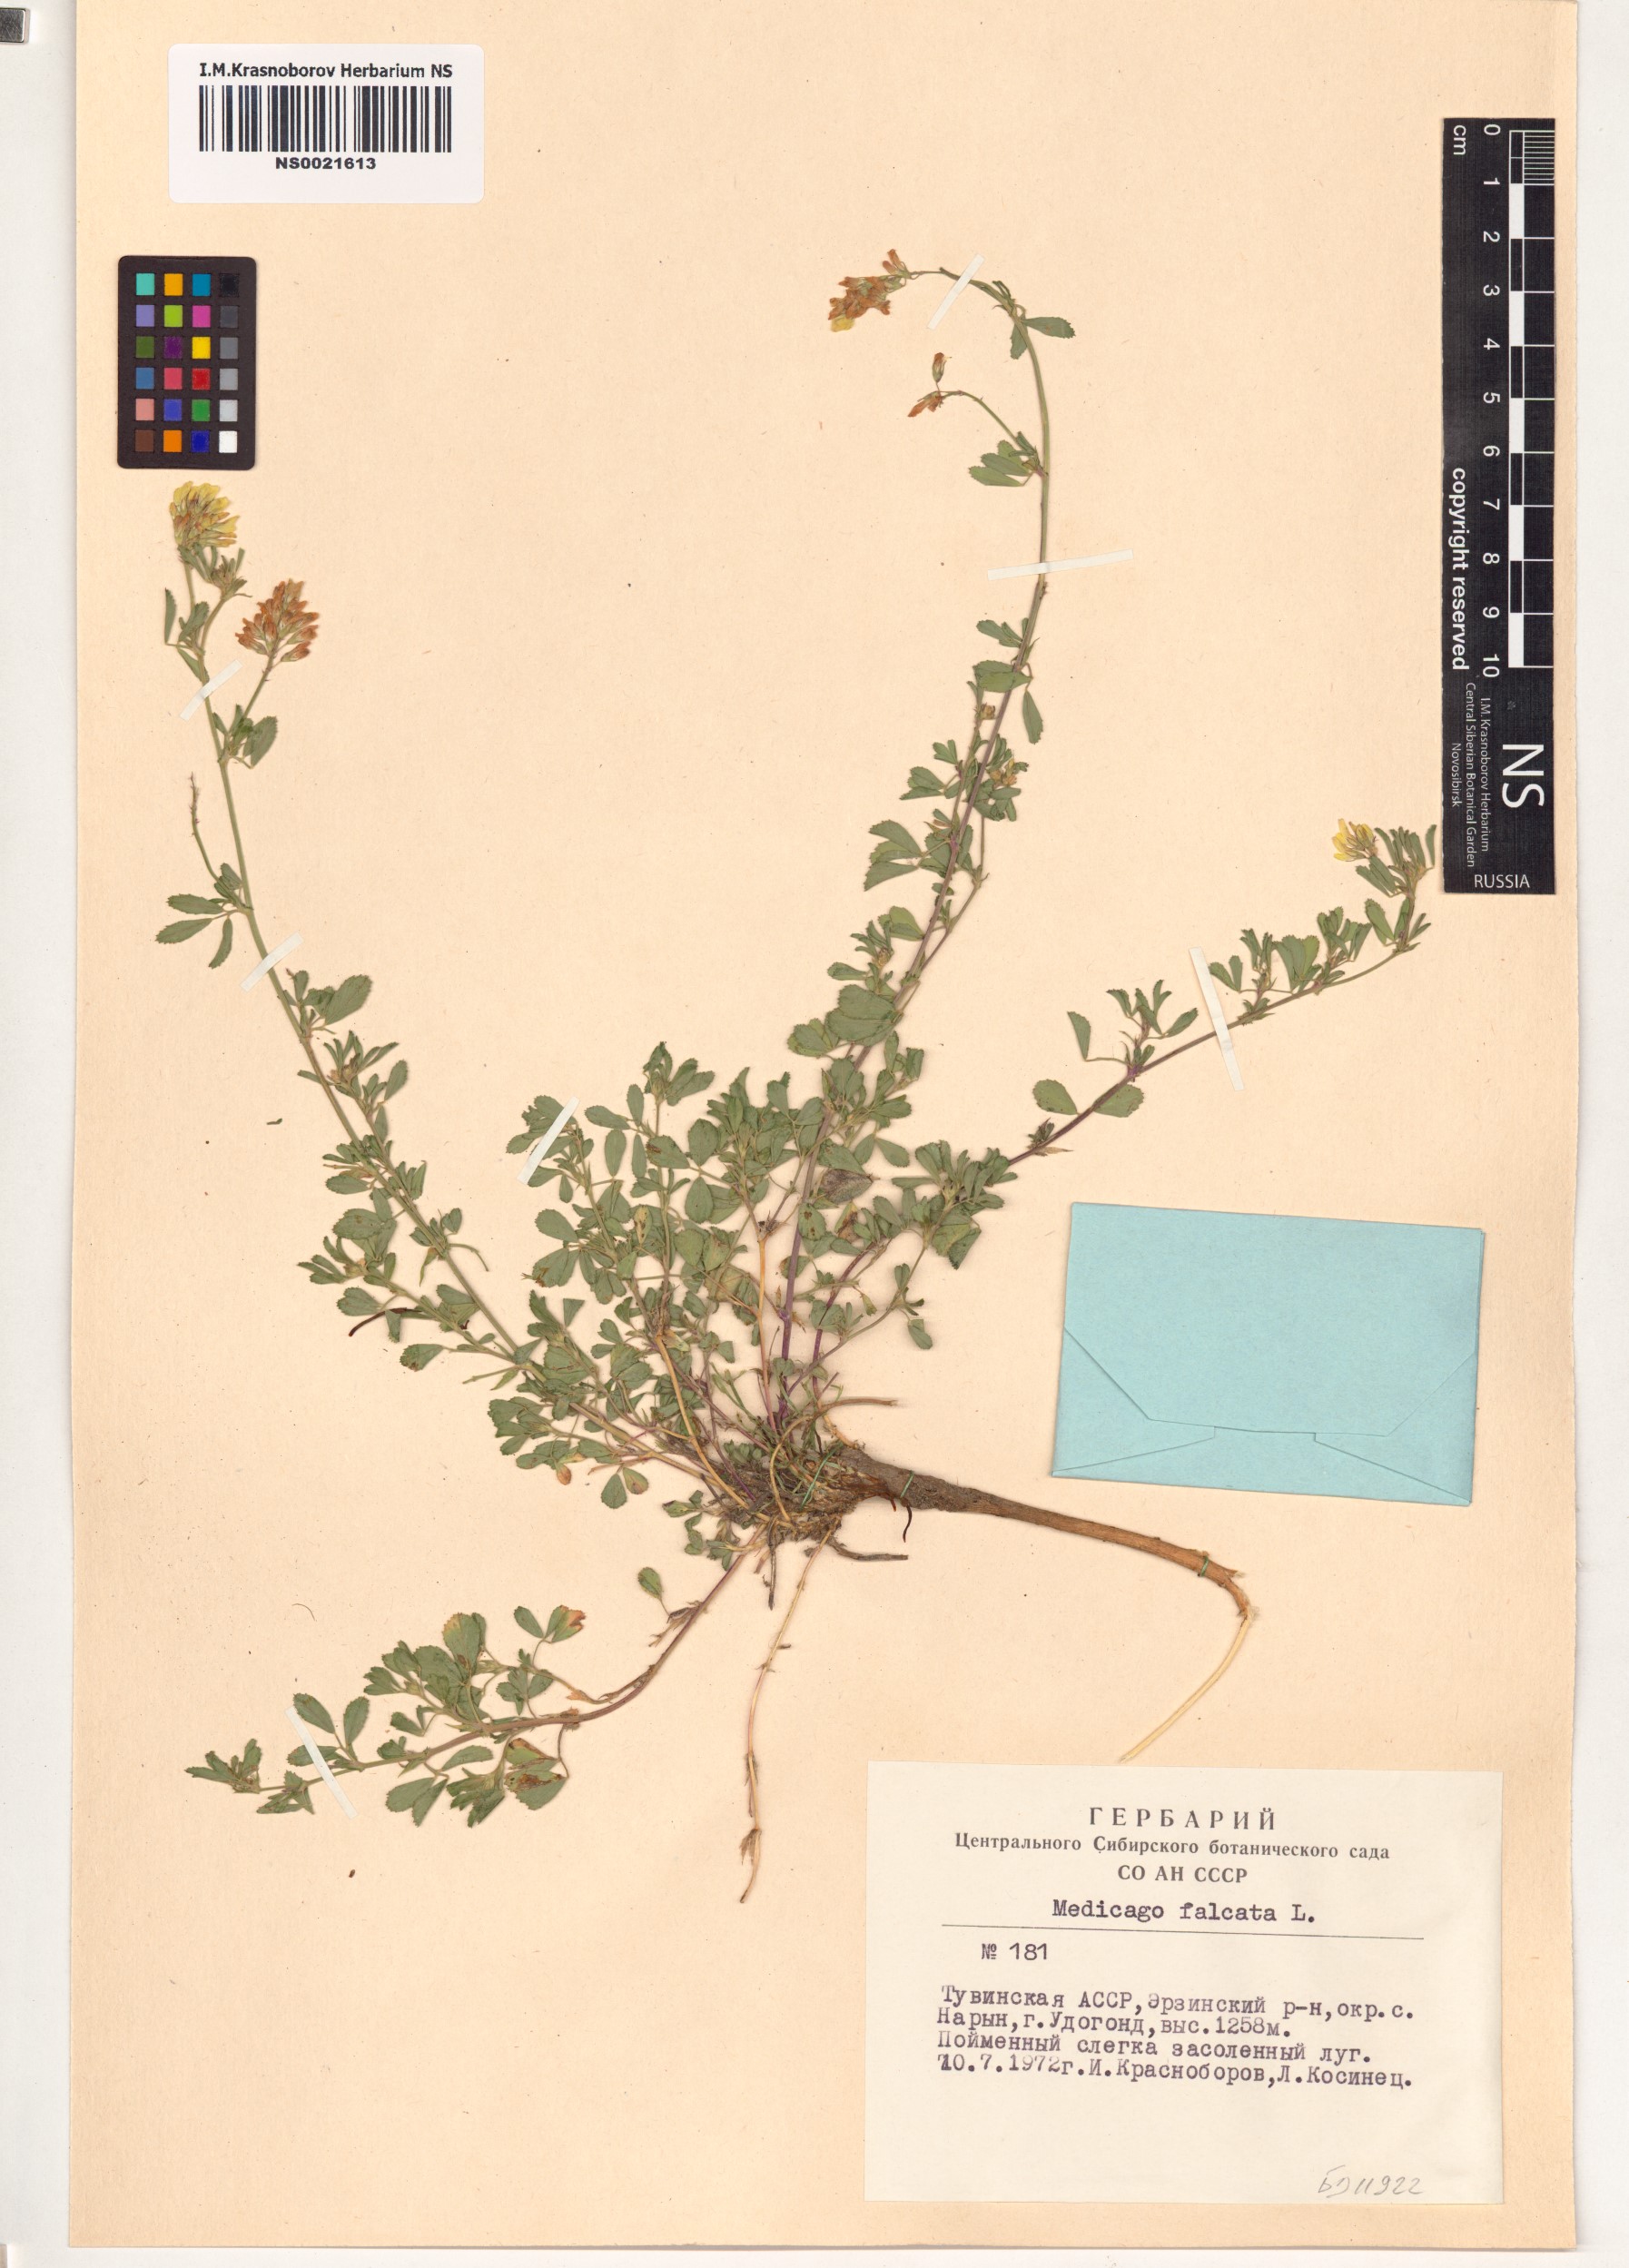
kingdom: Plantae
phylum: Tracheophyta
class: Magnoliopsida
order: Fabales
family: Fabaceae
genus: Medicago
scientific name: Medicago falcata
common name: Sickle medick
